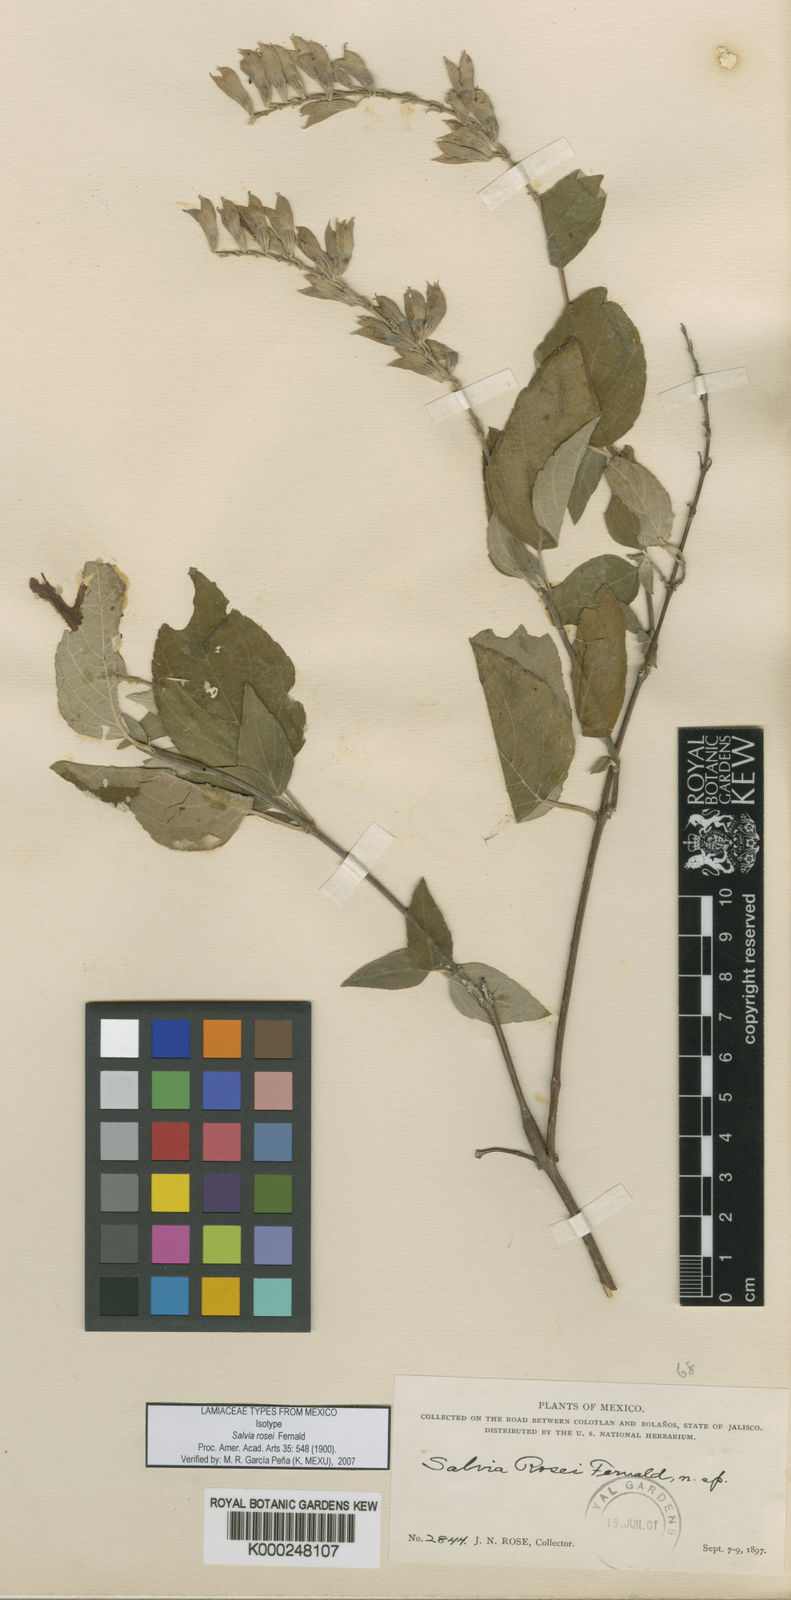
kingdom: Plantae
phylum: Tracheophyta
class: Magnoliopsida
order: Lamiales
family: Lamiaceae
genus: Salvia
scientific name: Salvia rosei
